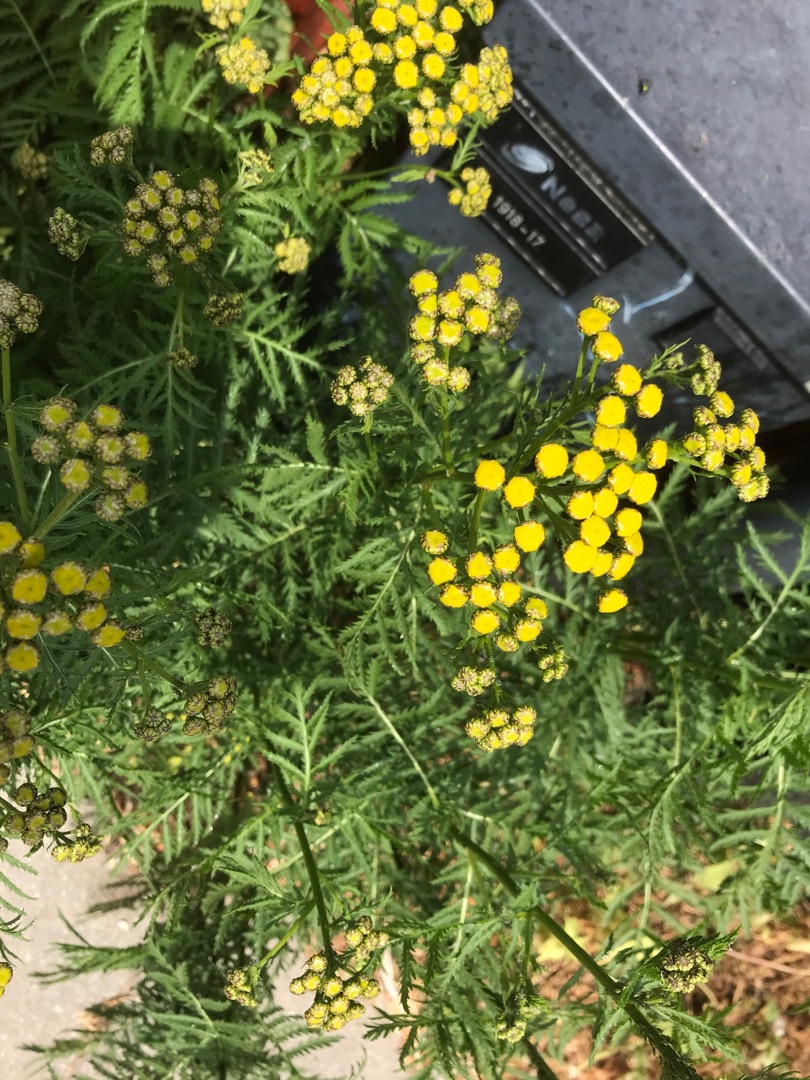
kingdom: Plantae
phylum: Tracheophyta
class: Magnoliopsida
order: Asterales
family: Asteraceae
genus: Tanacetum
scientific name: Tanacetum vulgare
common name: Rejnfan
